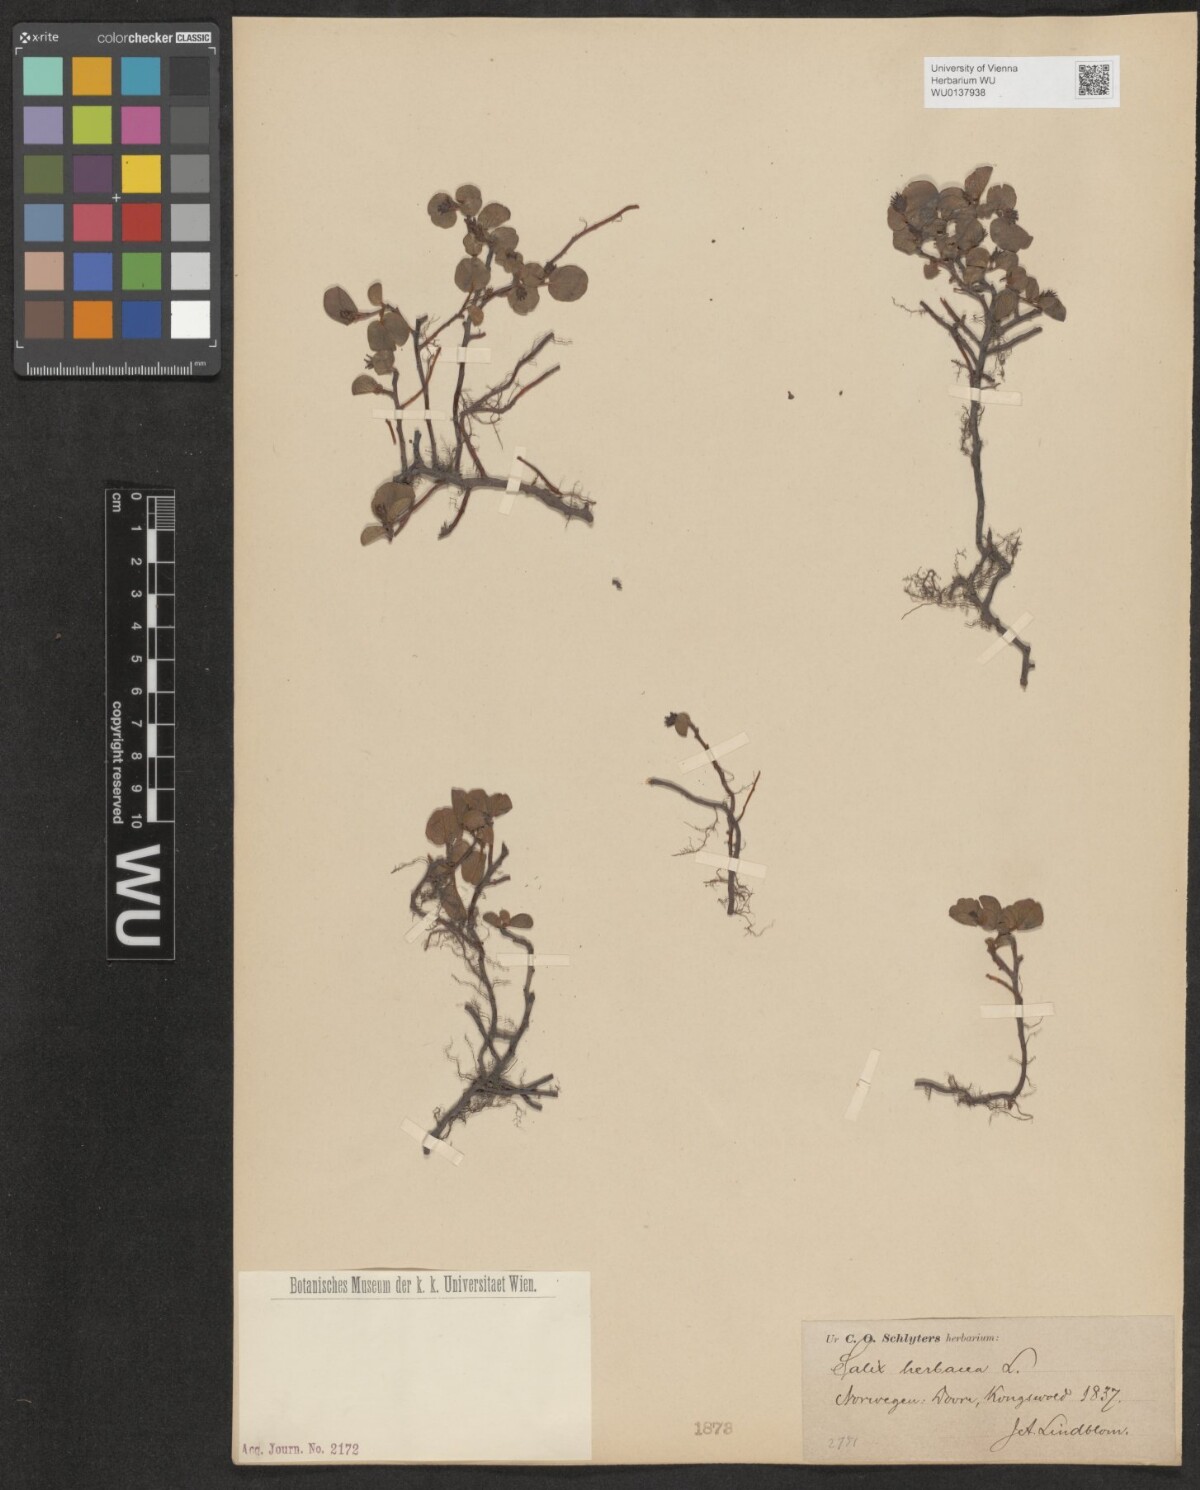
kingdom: Plantae
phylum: Tracheophyta
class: Magnoliopsida
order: Malpighiales
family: Salicaceae
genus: Salix
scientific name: Salix herbacea
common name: Dwarf willow
